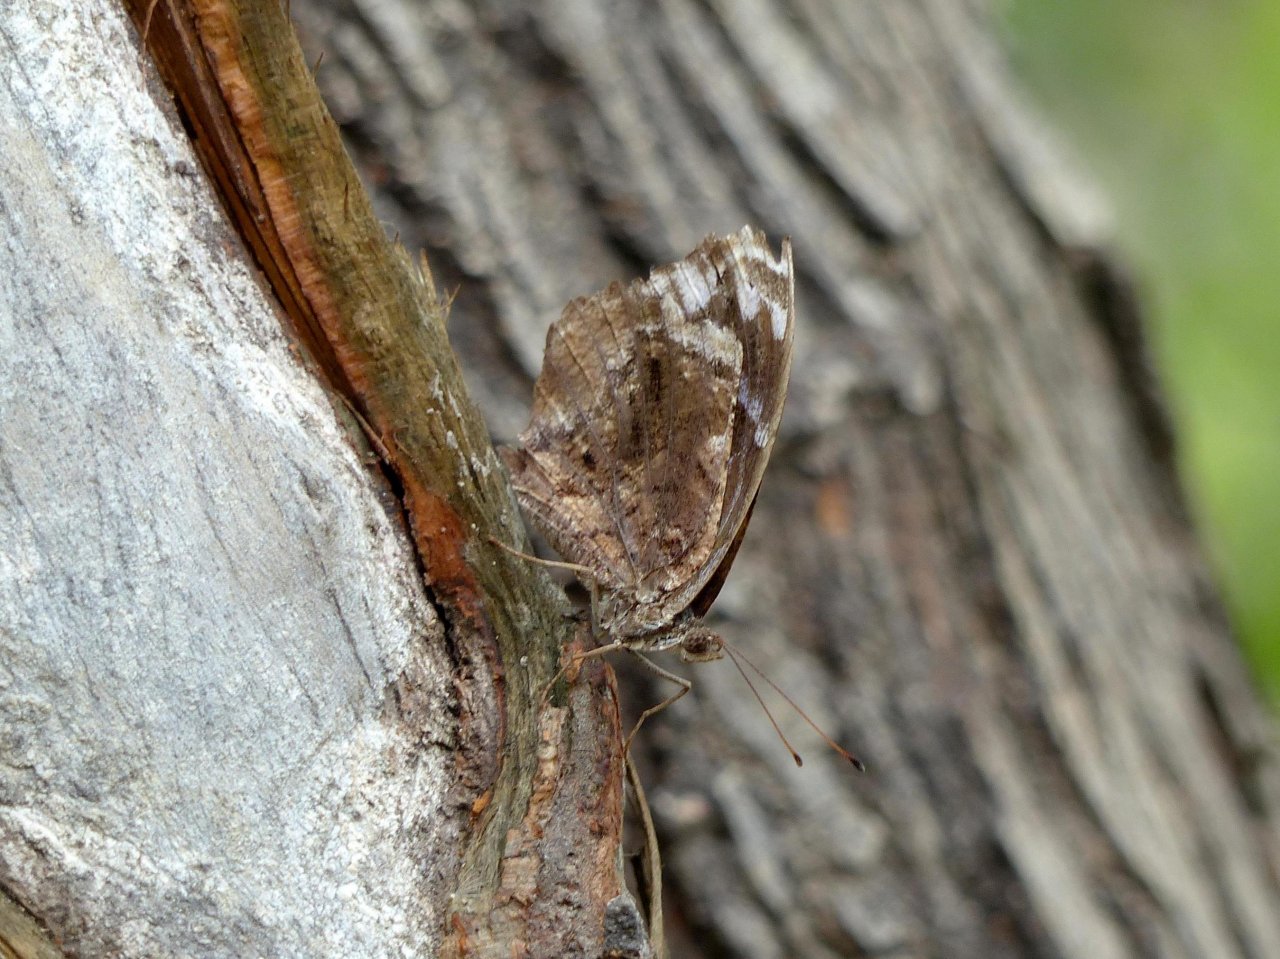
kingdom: Animalia
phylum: Arthropoda
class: Insecta
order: Lepidoptera
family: Nymphalidae
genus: Myscelia
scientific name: Myscelia ethusa
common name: Mexican Bluewing
